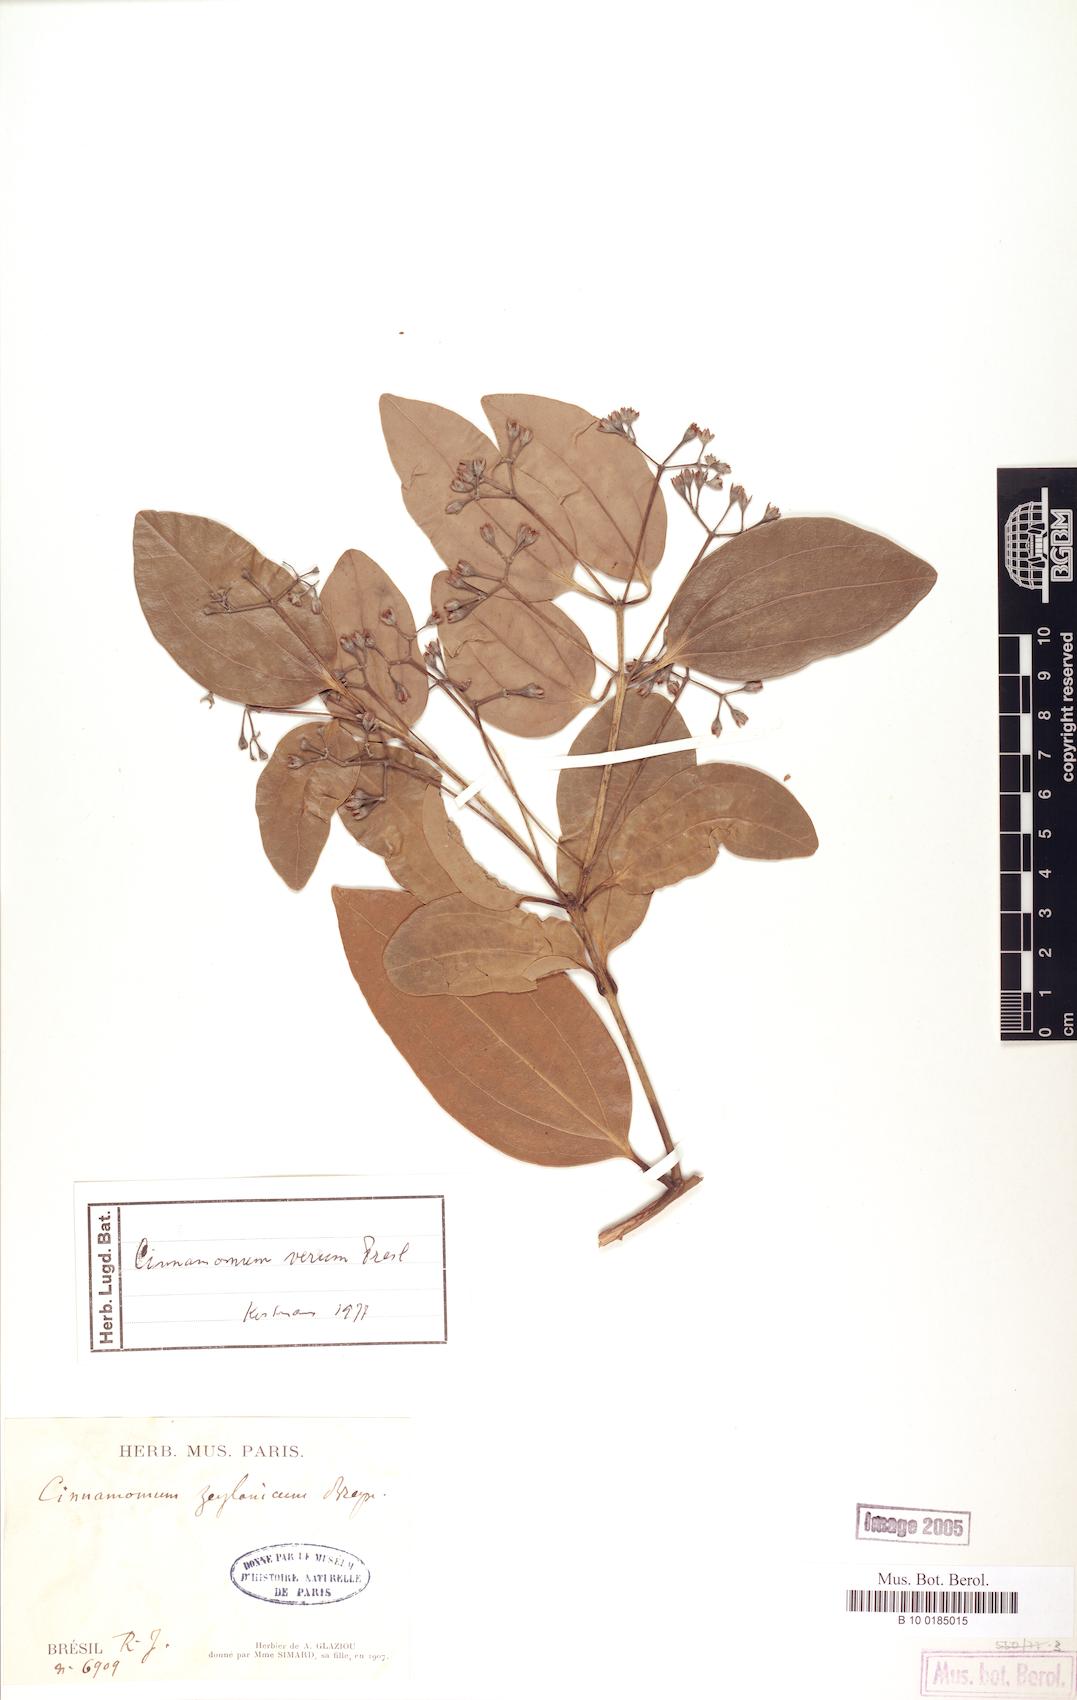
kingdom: Plantae
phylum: Tracheophyta
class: Magnoliopsida
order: Laurales
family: Lauraceae
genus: Cinnamomum
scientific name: Cinnamomum verum
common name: Cinnamon
